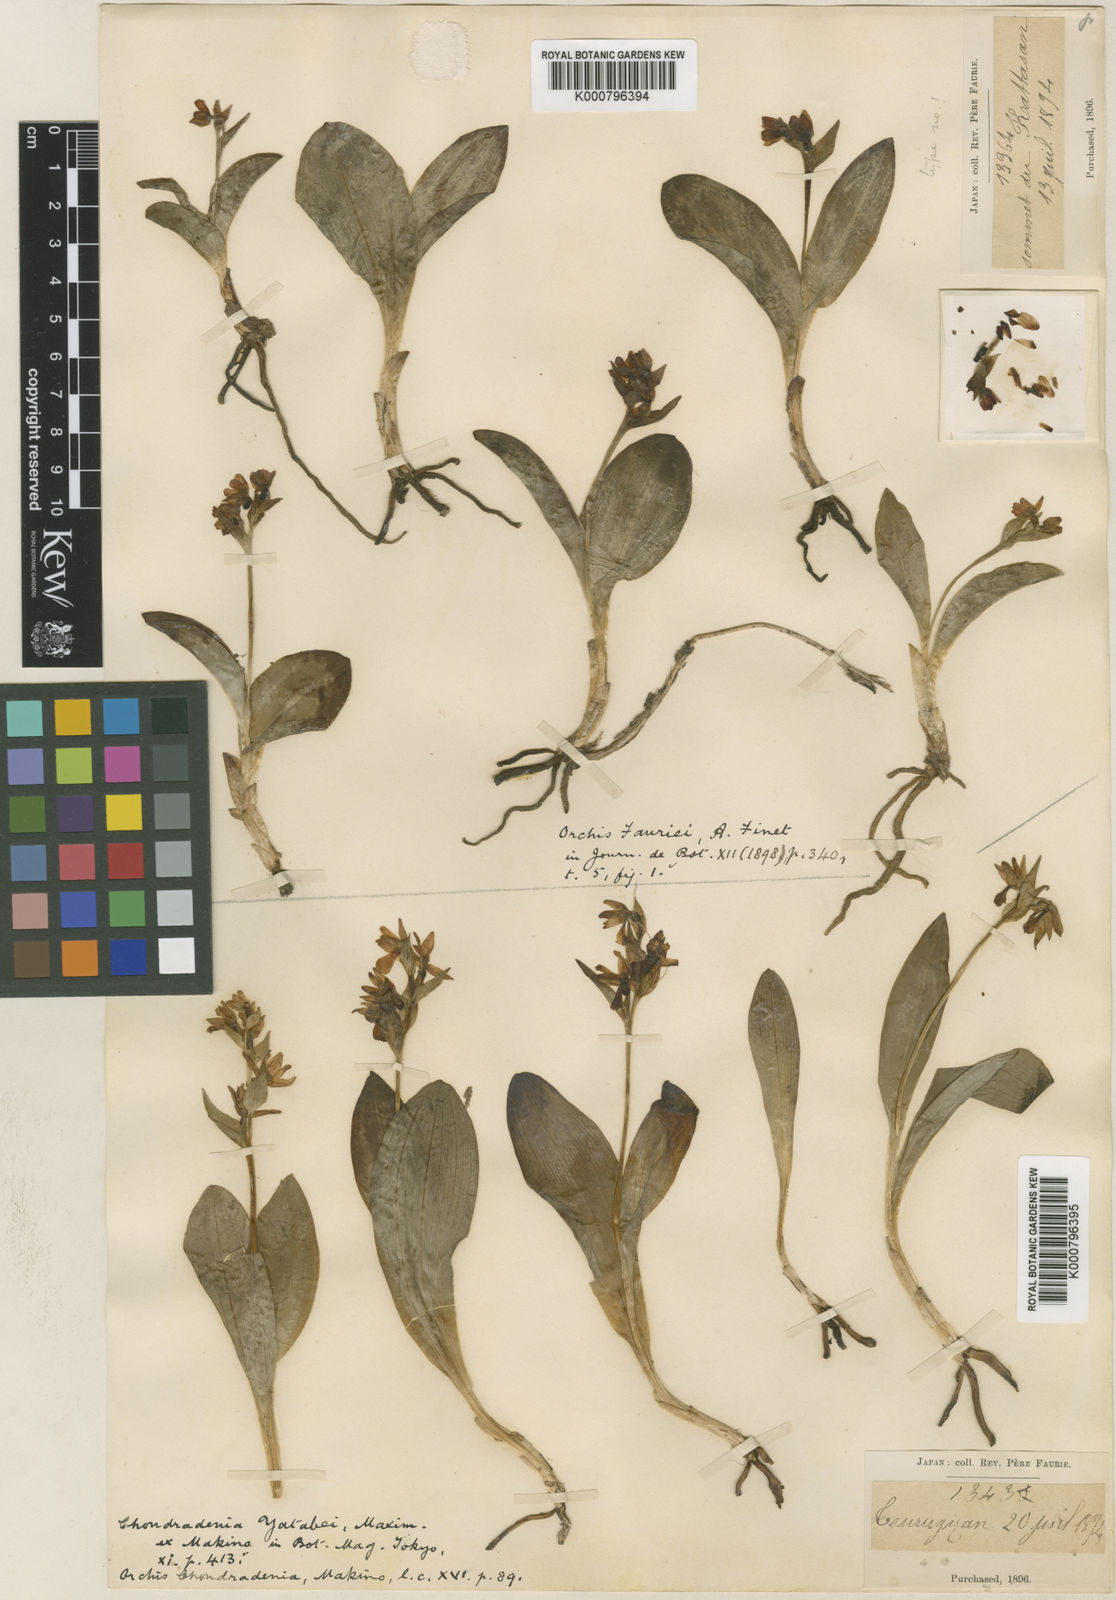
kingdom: Plantae
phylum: Tracheophyta
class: Liliopsida
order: Asparagales
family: Orchidaceae
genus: Galearis
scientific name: Galearis fauriei
